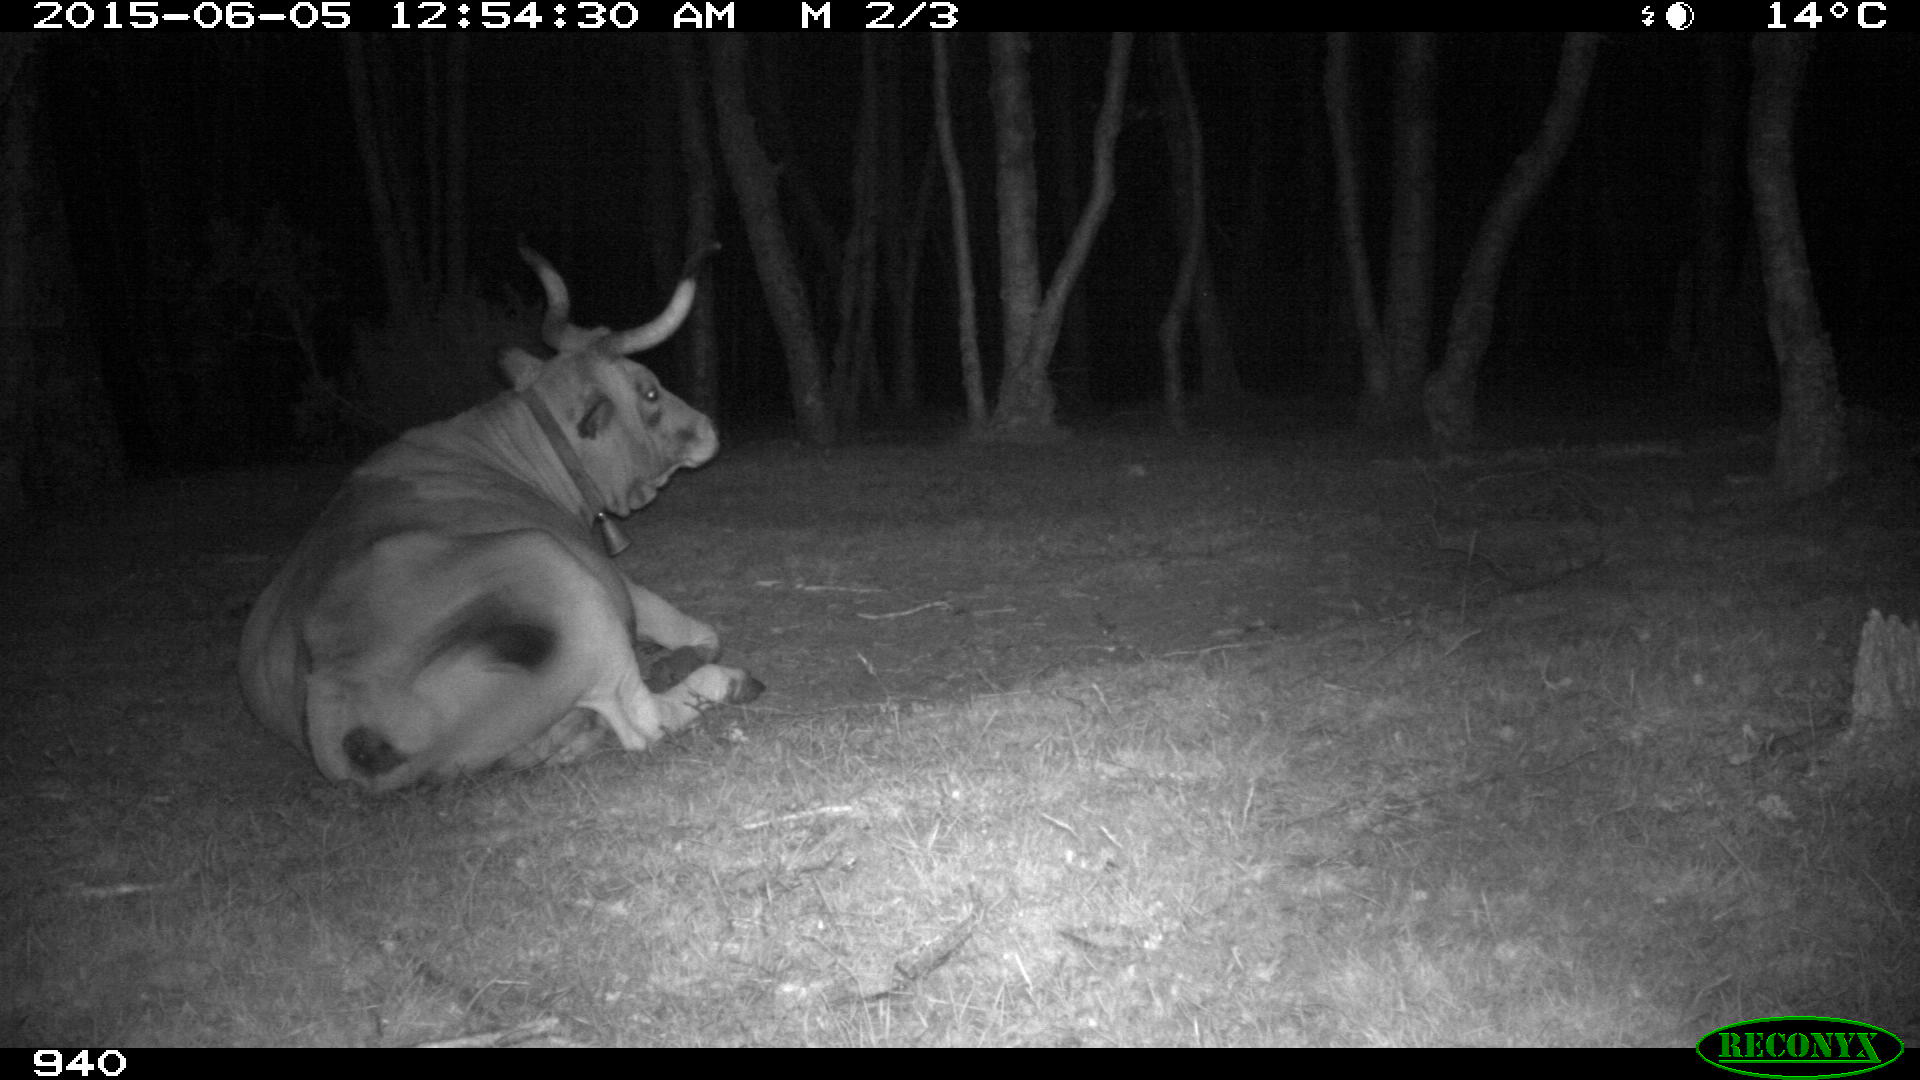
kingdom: Animalia
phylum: Chordata
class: Mammalia
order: Artiodactyla
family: Bovidae
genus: Bos
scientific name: Bos taurus
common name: Domesticated cattle
